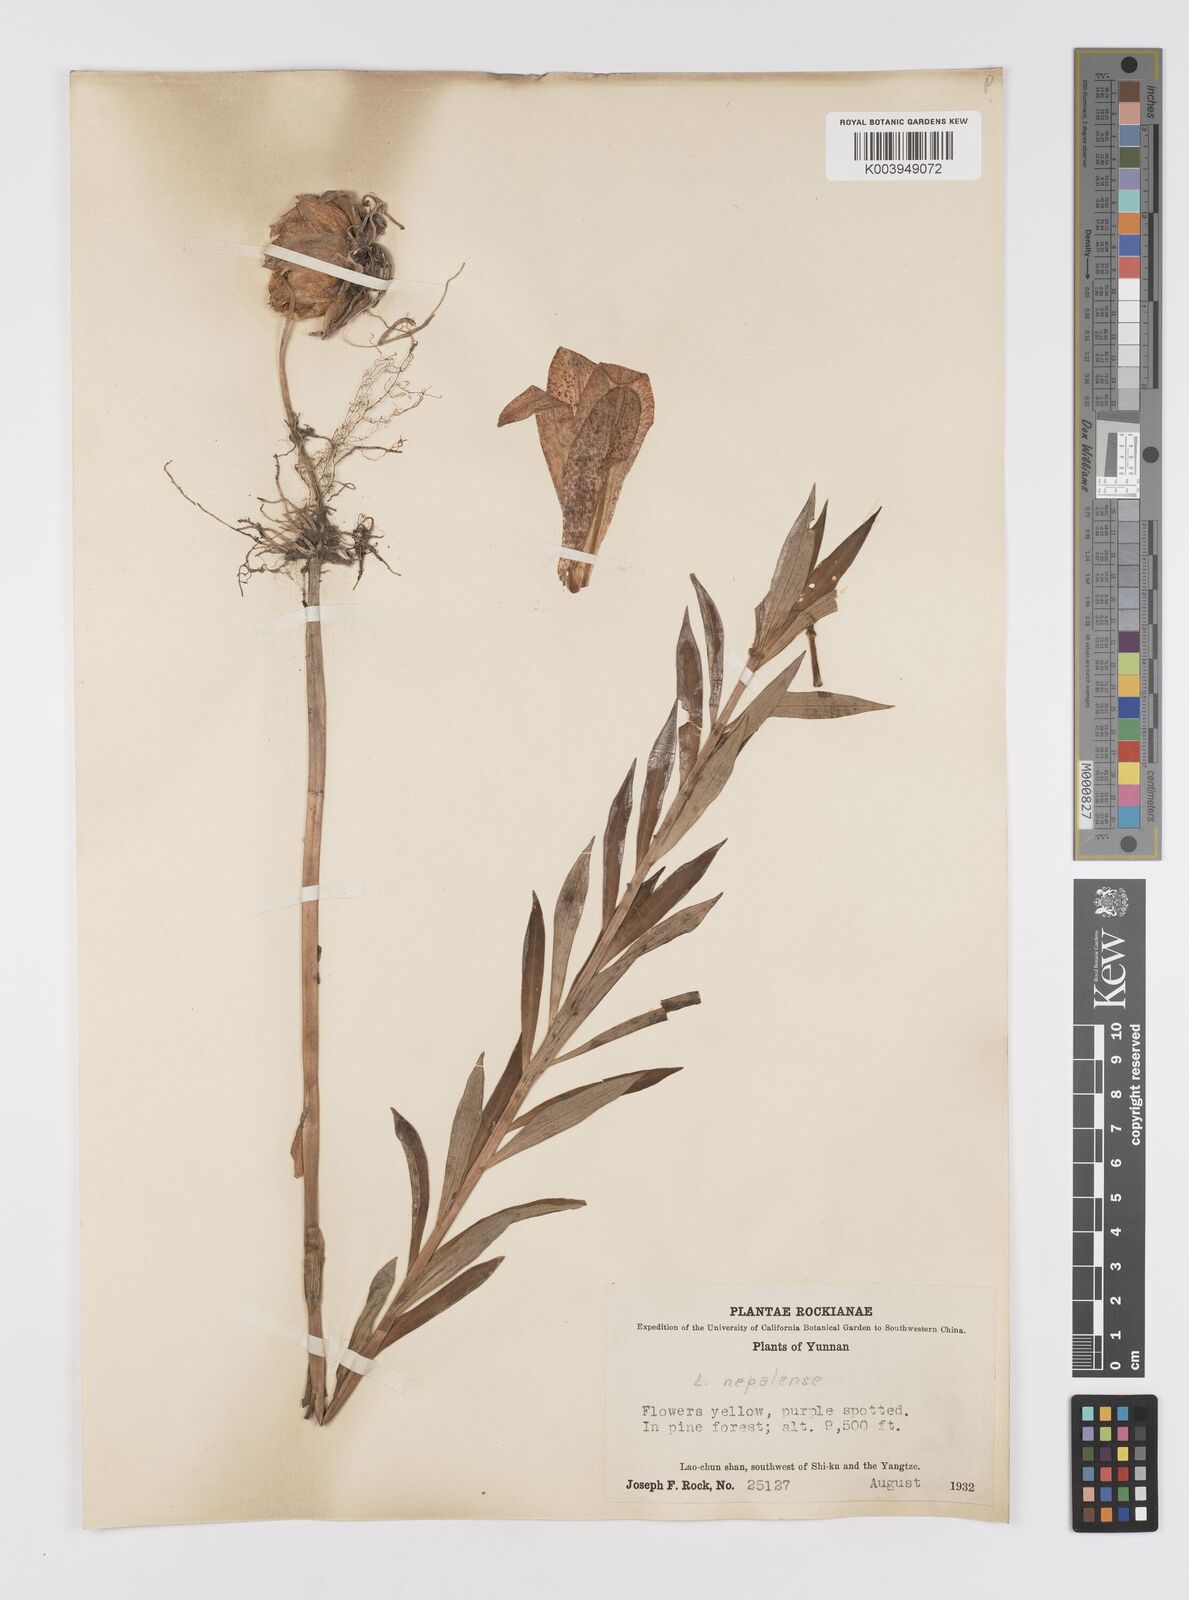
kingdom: Plantae
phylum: Tracheophyta
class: Liliopsida
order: Liliales
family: Liliaceae
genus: Lilium
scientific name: Lilium
